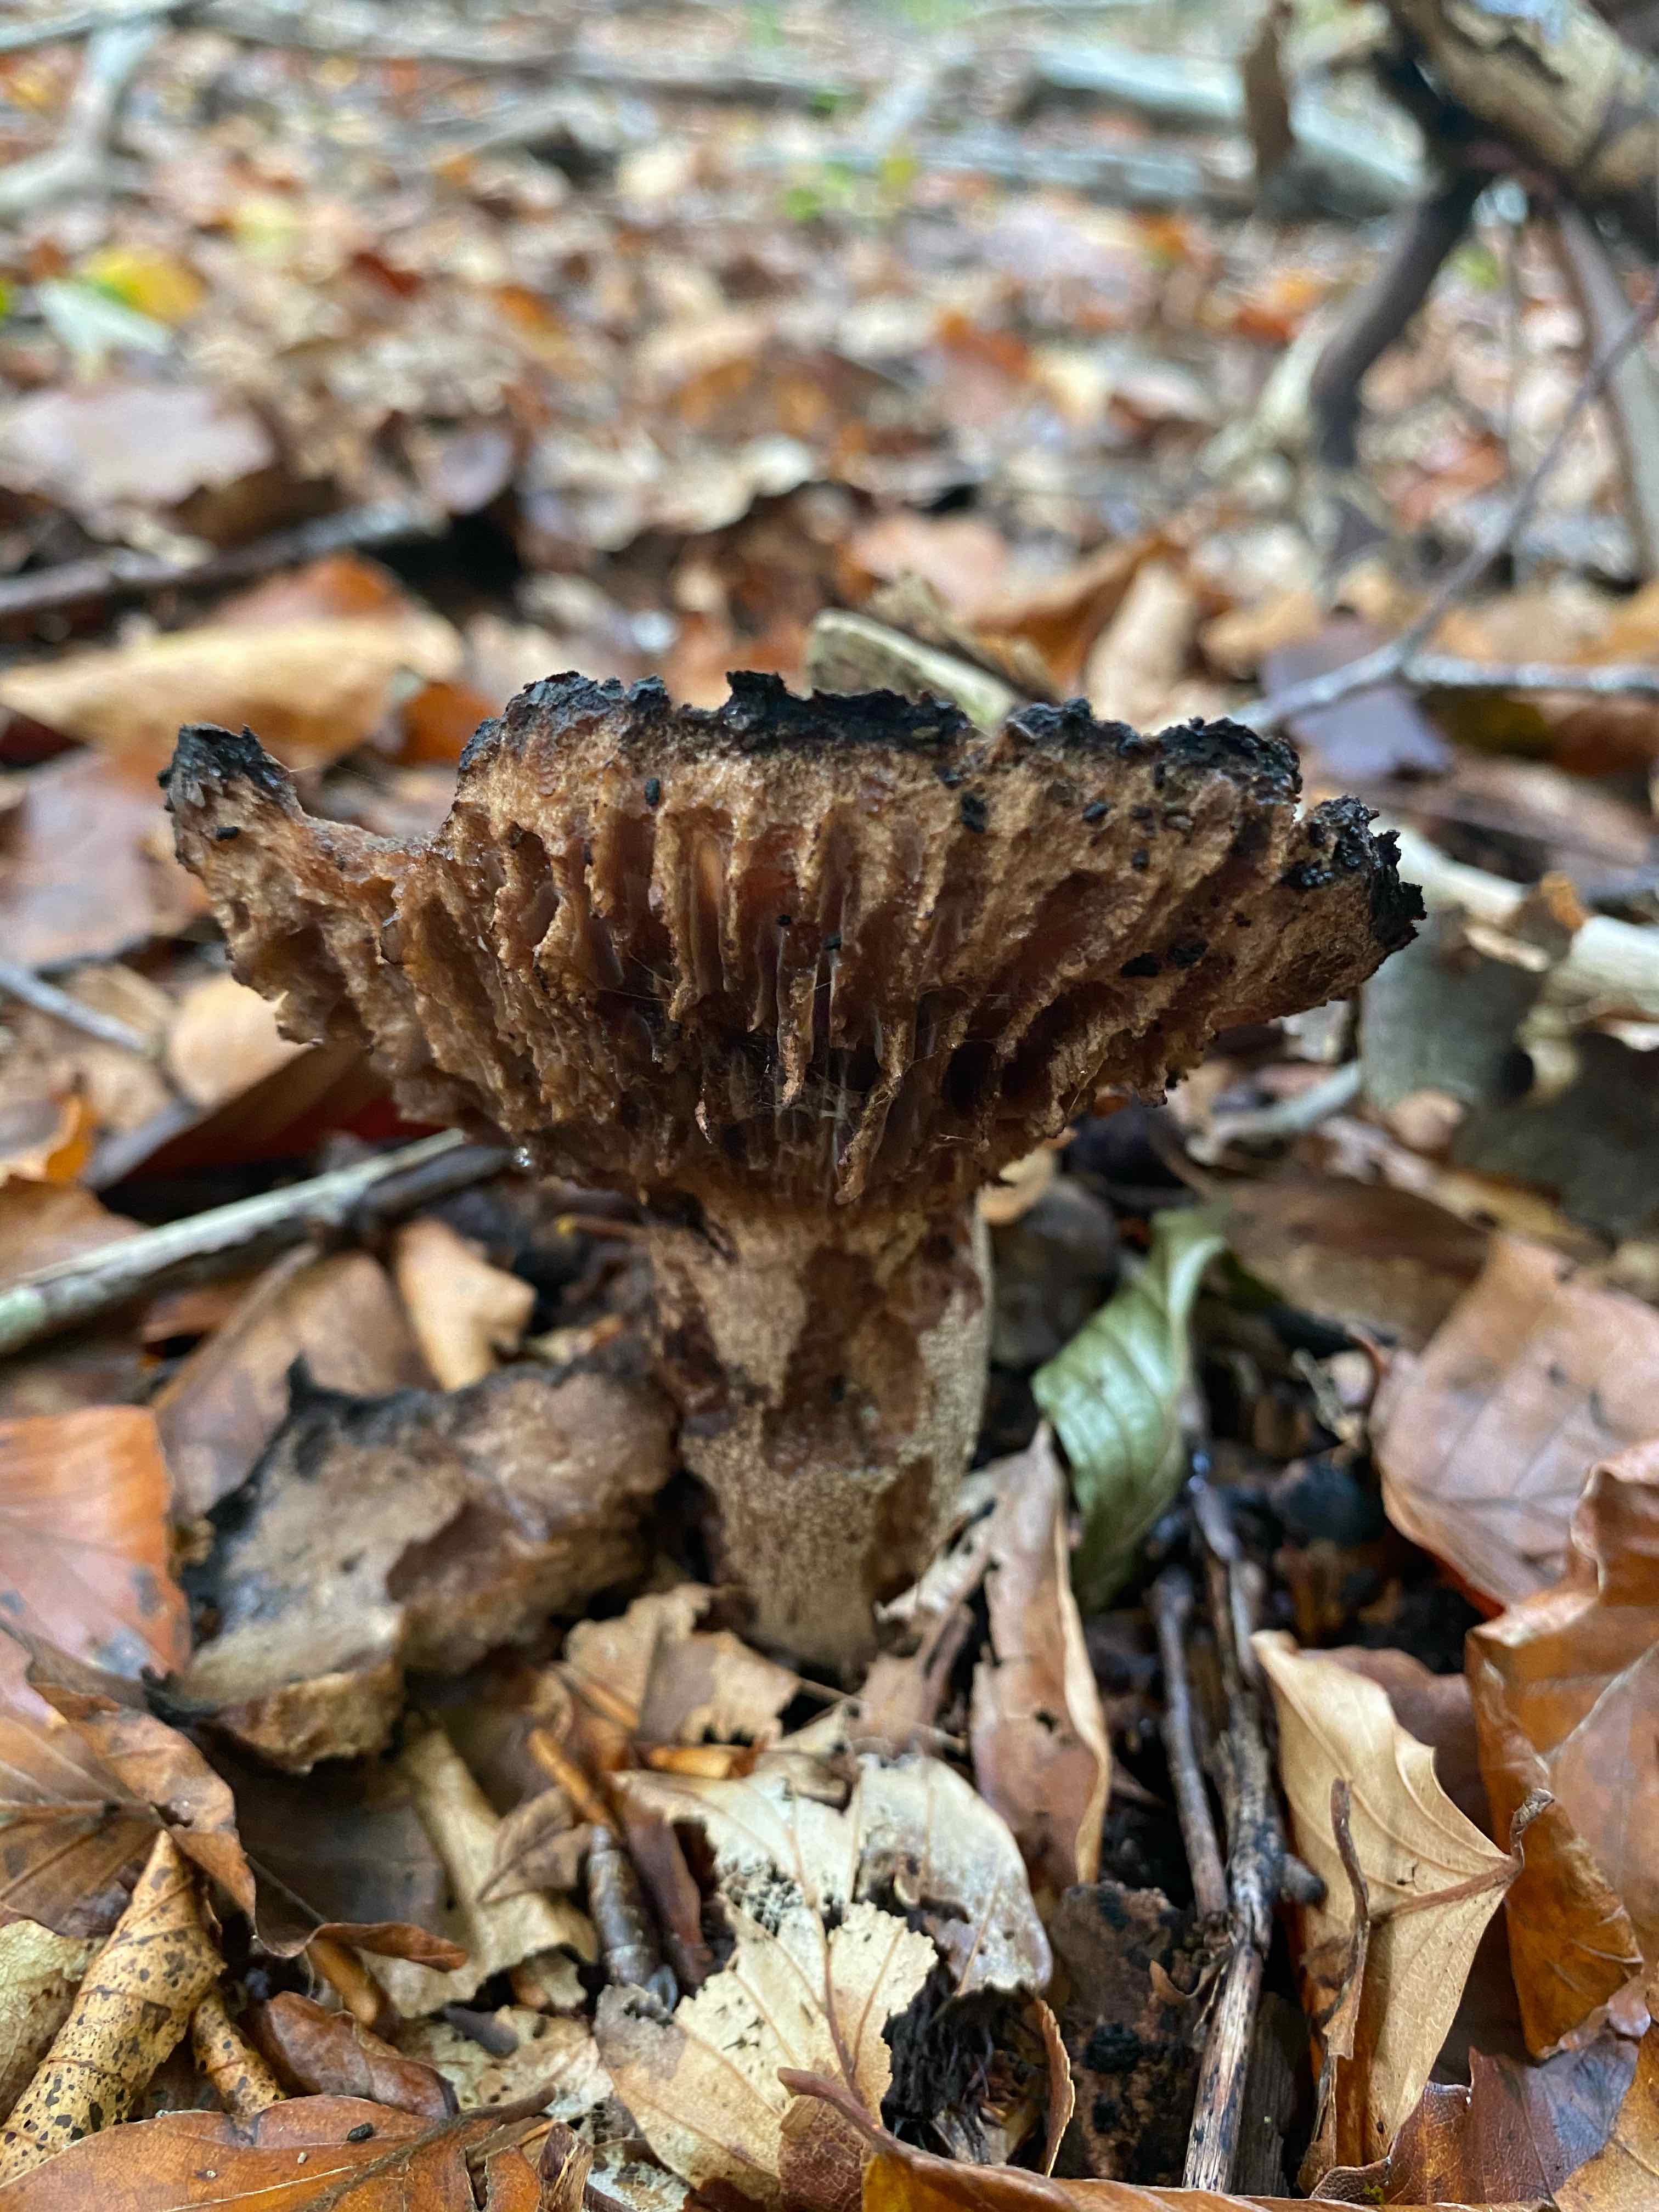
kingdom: Fungi
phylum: Basidiomycota
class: Agaricomycetes
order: Russulales
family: Russulaceae
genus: Russula
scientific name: Russula adusta
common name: sværtende skørhat
